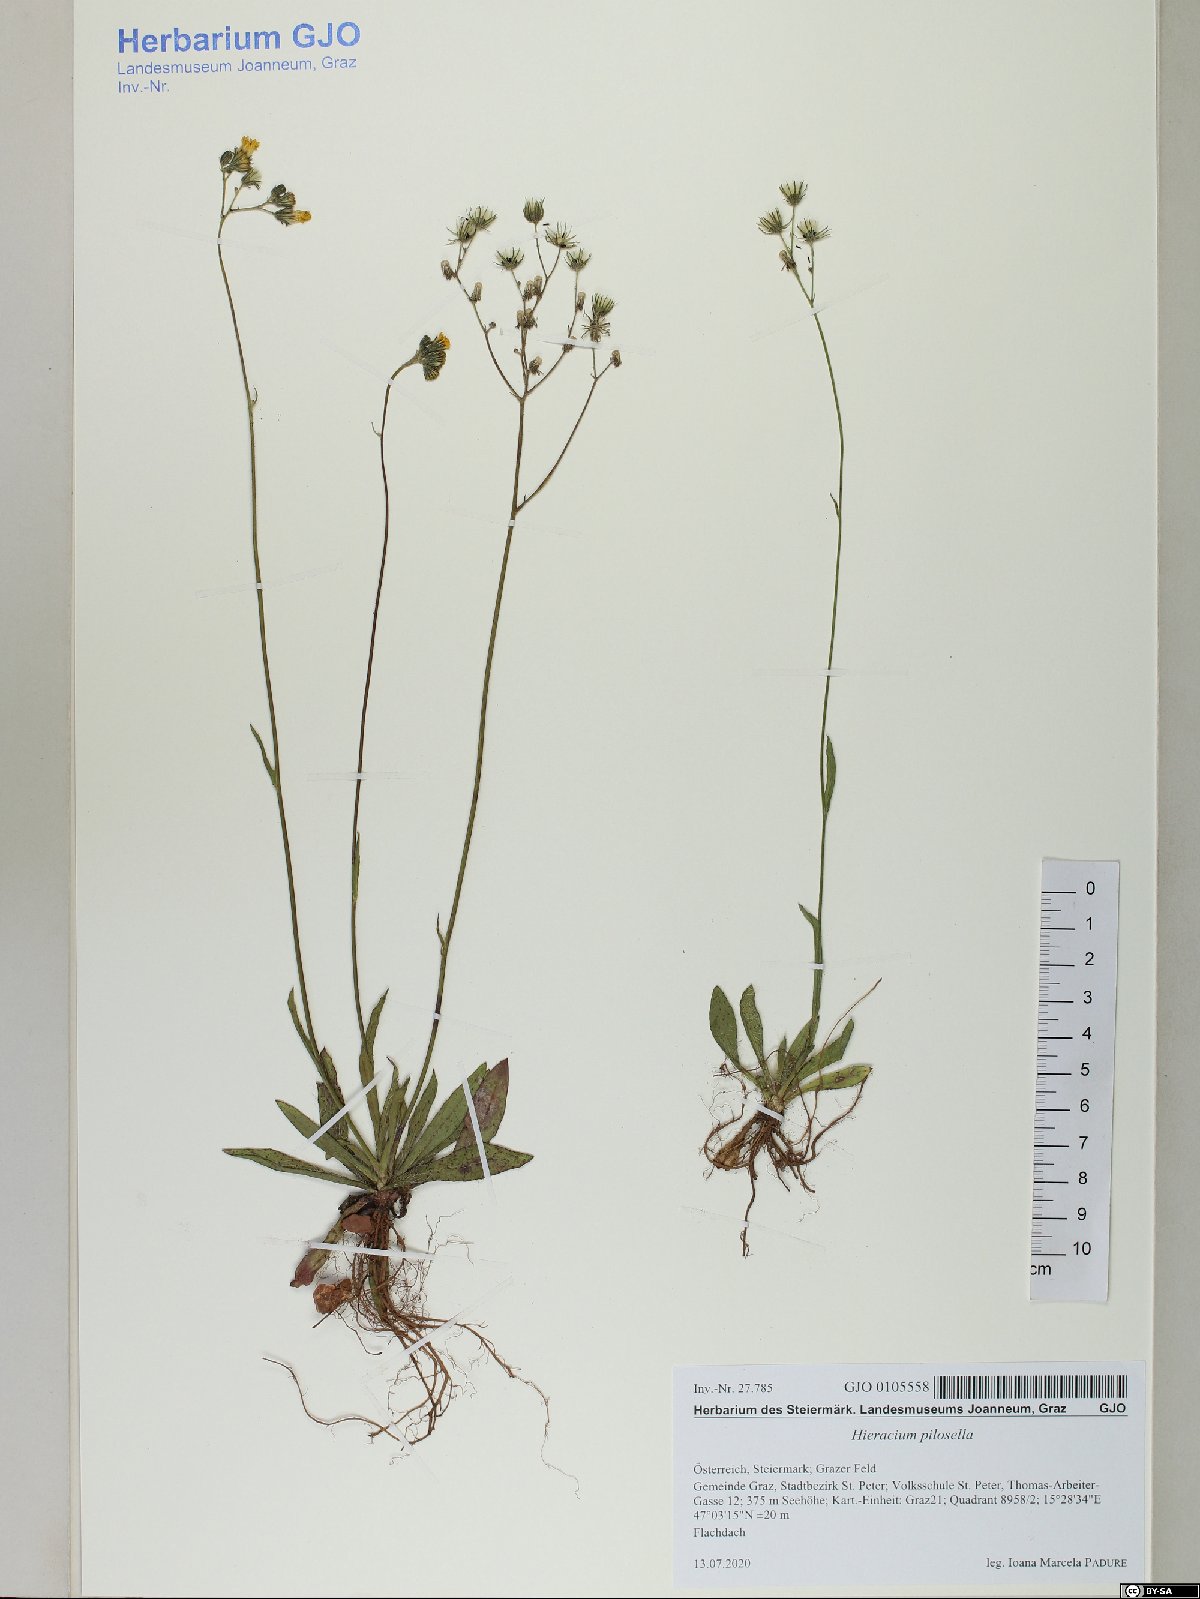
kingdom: Plantae
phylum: Tracheophyta
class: Magnoliopsida
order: Asterales
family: Asteraceae
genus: Pilosella
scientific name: Pilosella officinarum
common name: Mouse-ear hawkweed
